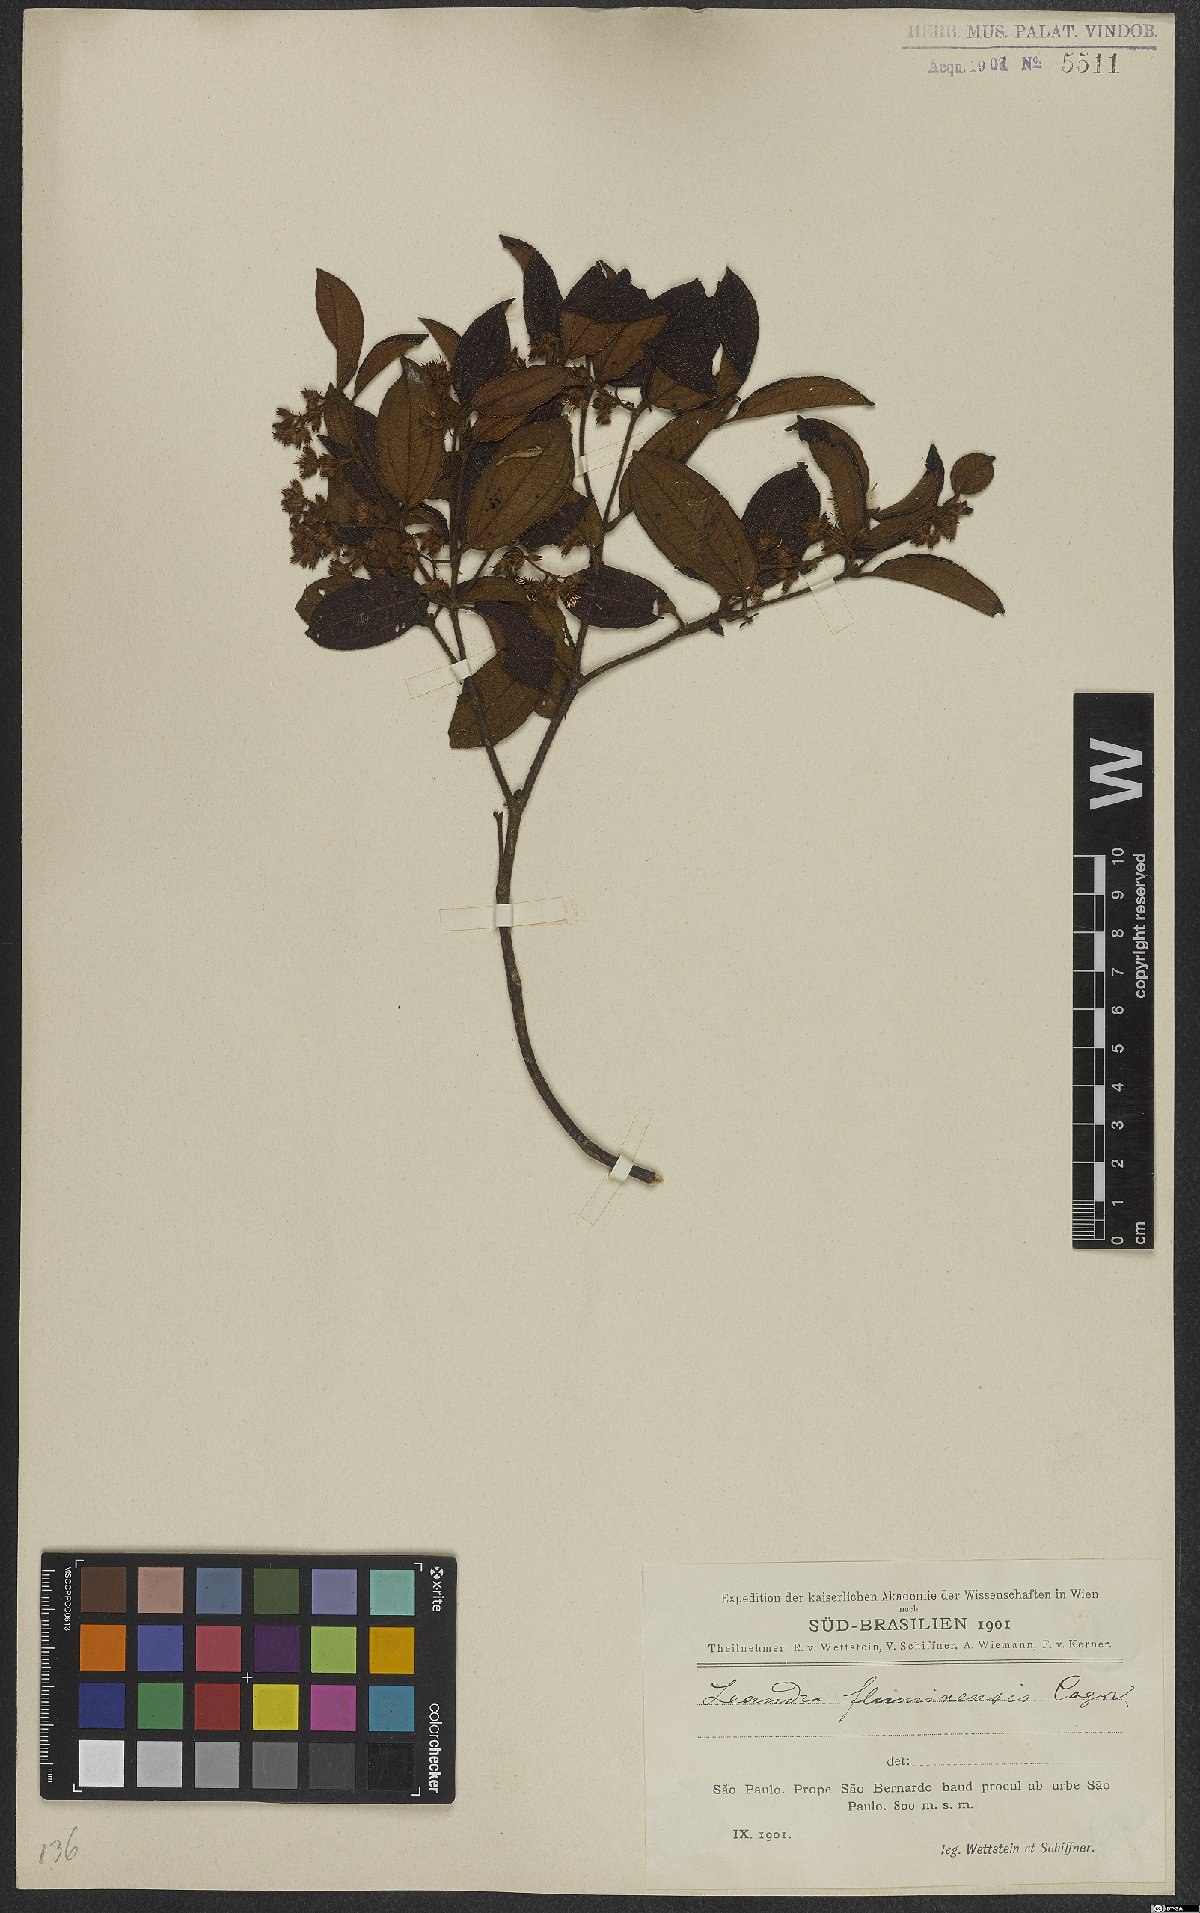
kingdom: Plantae
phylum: Tracheophyta
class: Magnoliopsida
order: Myrtales
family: Melastomataceae
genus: Miconia
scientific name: Miconia leafluminensis
